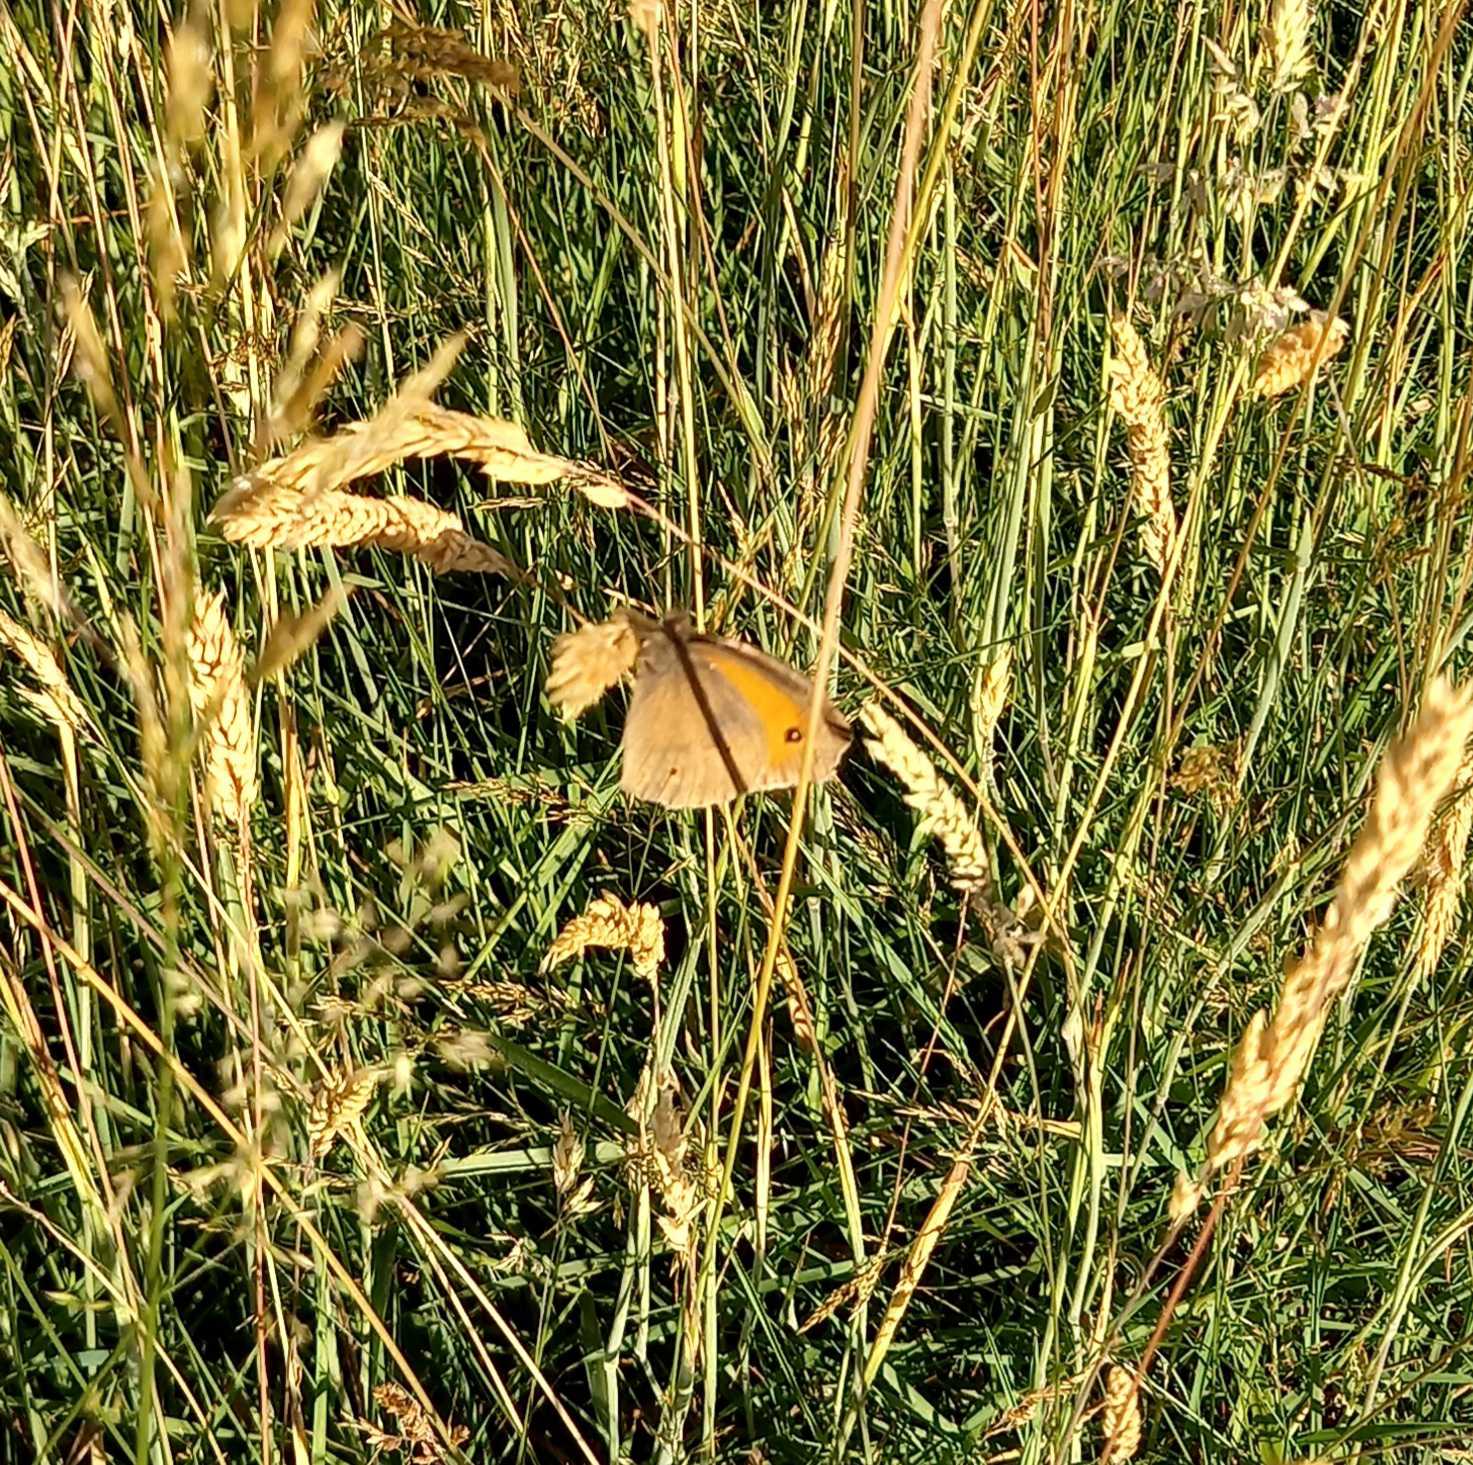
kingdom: Animalia
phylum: Arthropoda
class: Insecta
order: Lepidoptera
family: Nymphalidae
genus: Maniola
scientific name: Maniola jurtina
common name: Græsrandøje
